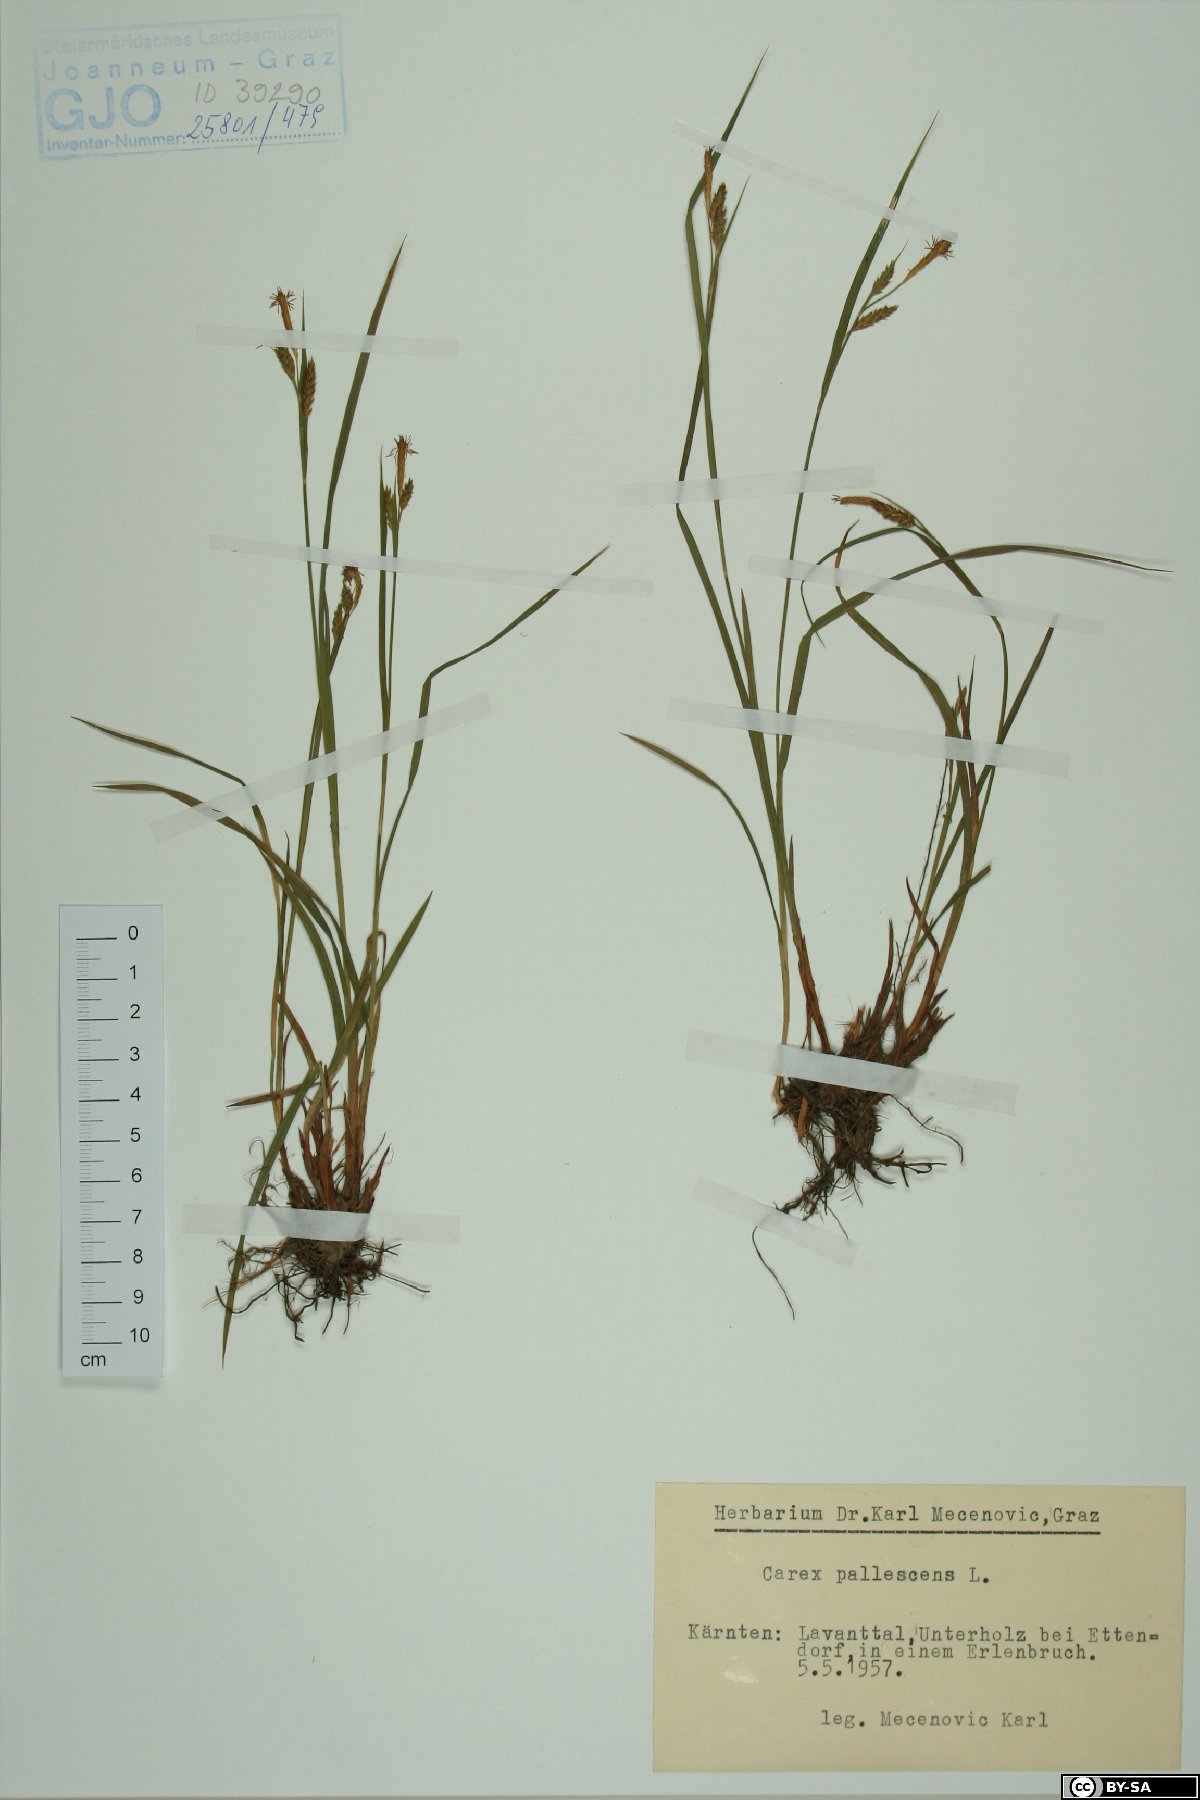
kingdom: Plantae
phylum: Tracheophyta
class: Liliopsida
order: Poales
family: Cyperaceae
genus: Carex
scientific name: Carex pallescens
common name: Pale sedge
